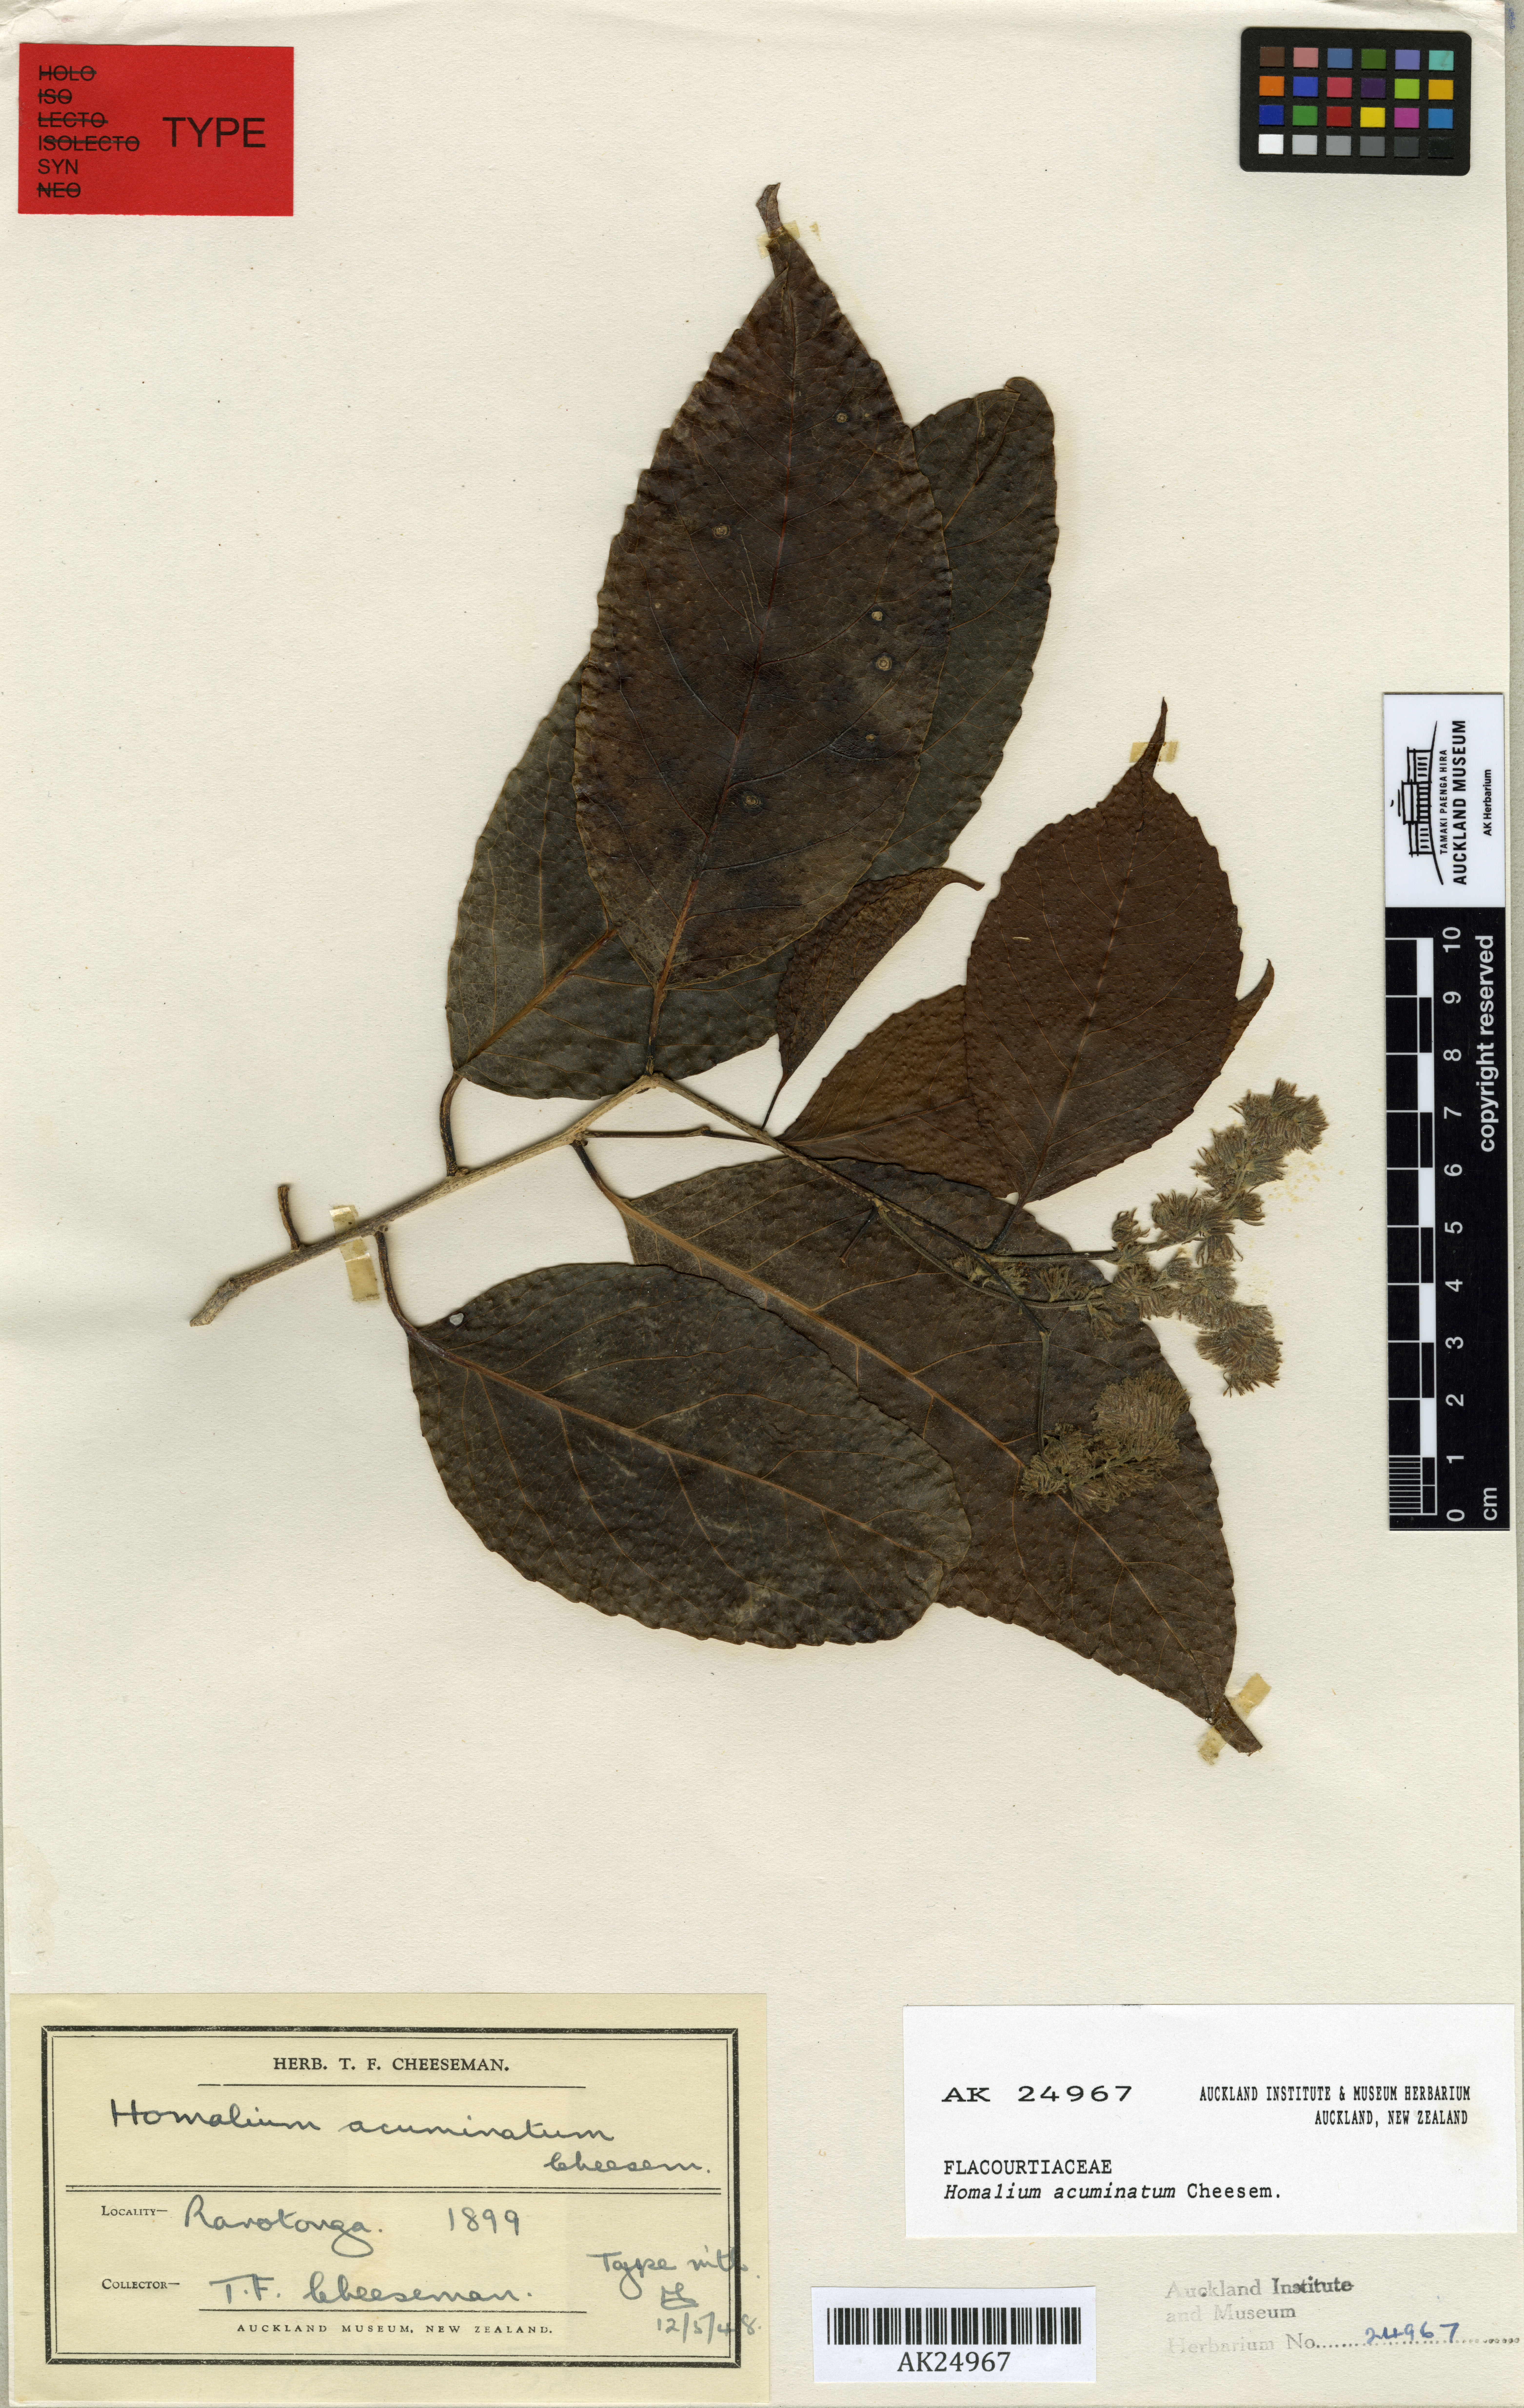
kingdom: Plantae
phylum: Tracheophyta
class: Magnoliopsida
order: Malpighiales
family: Salicaceae
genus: Homalium
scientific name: Homalium acuminatum
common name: Rarotonga homalium
